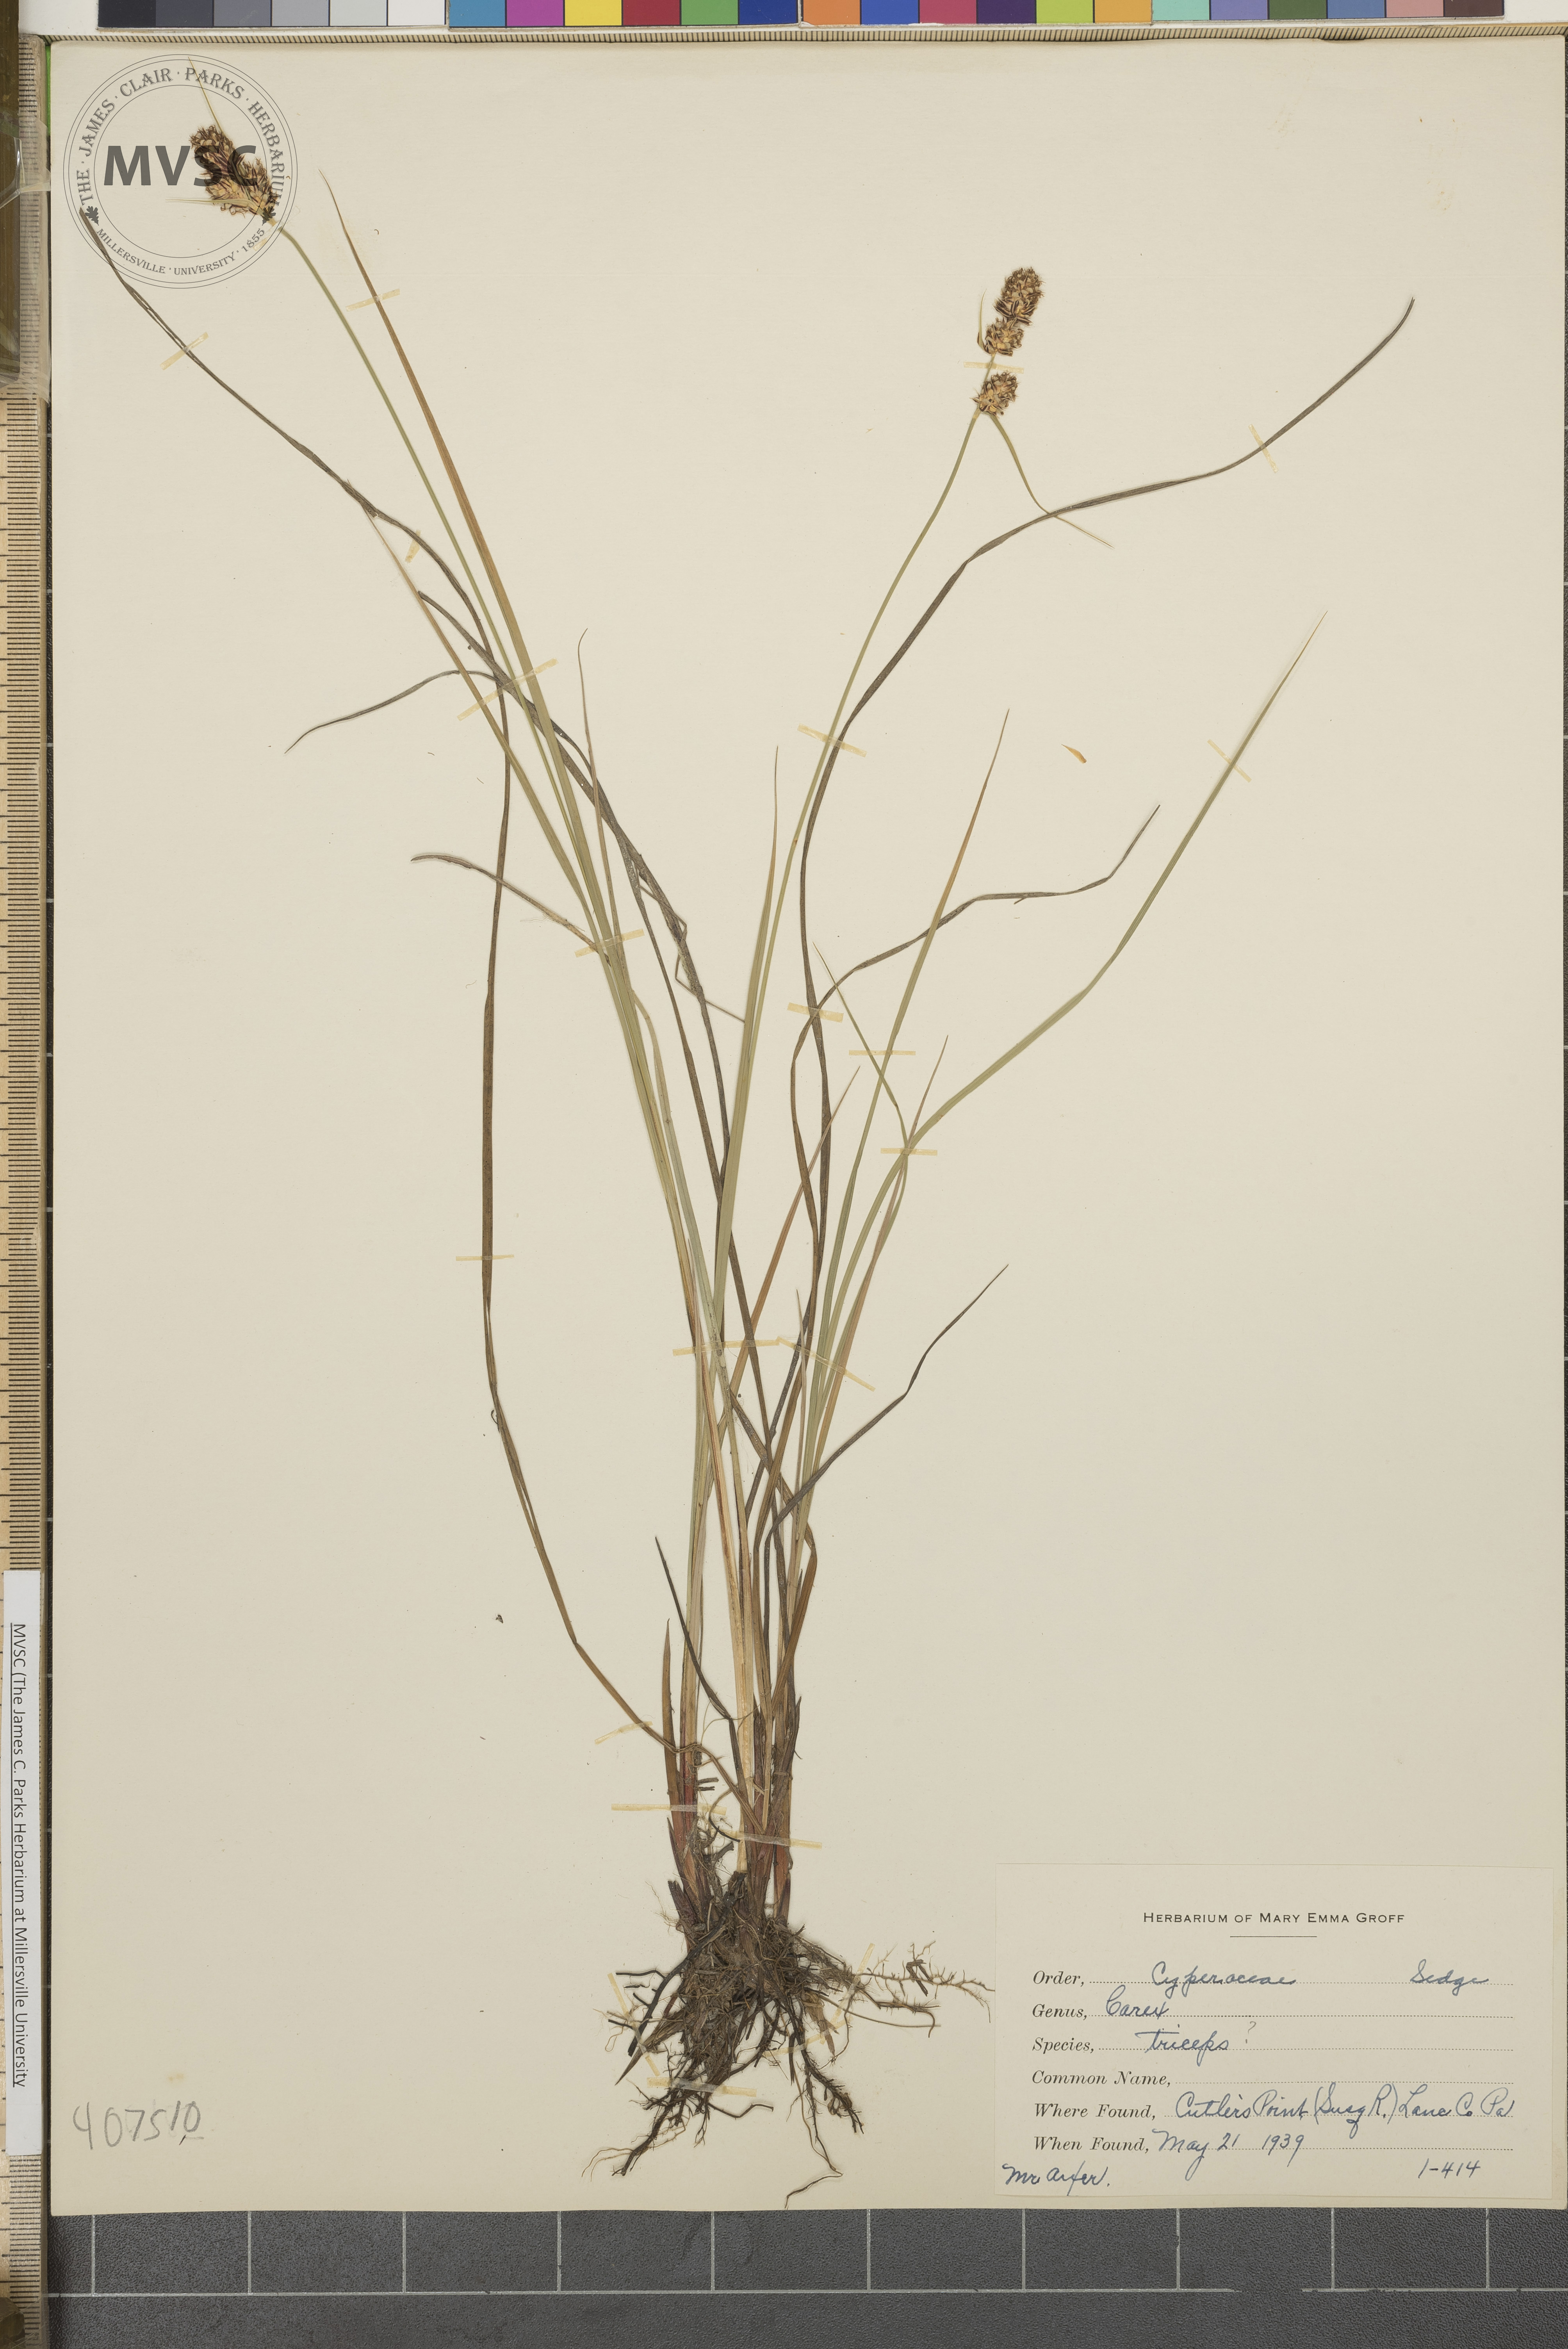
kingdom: Plantae
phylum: Tracheophyta
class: Liliopsida
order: Poales
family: Cyperaceae
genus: Carex
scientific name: Carex buxbaumii
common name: Club sedge
